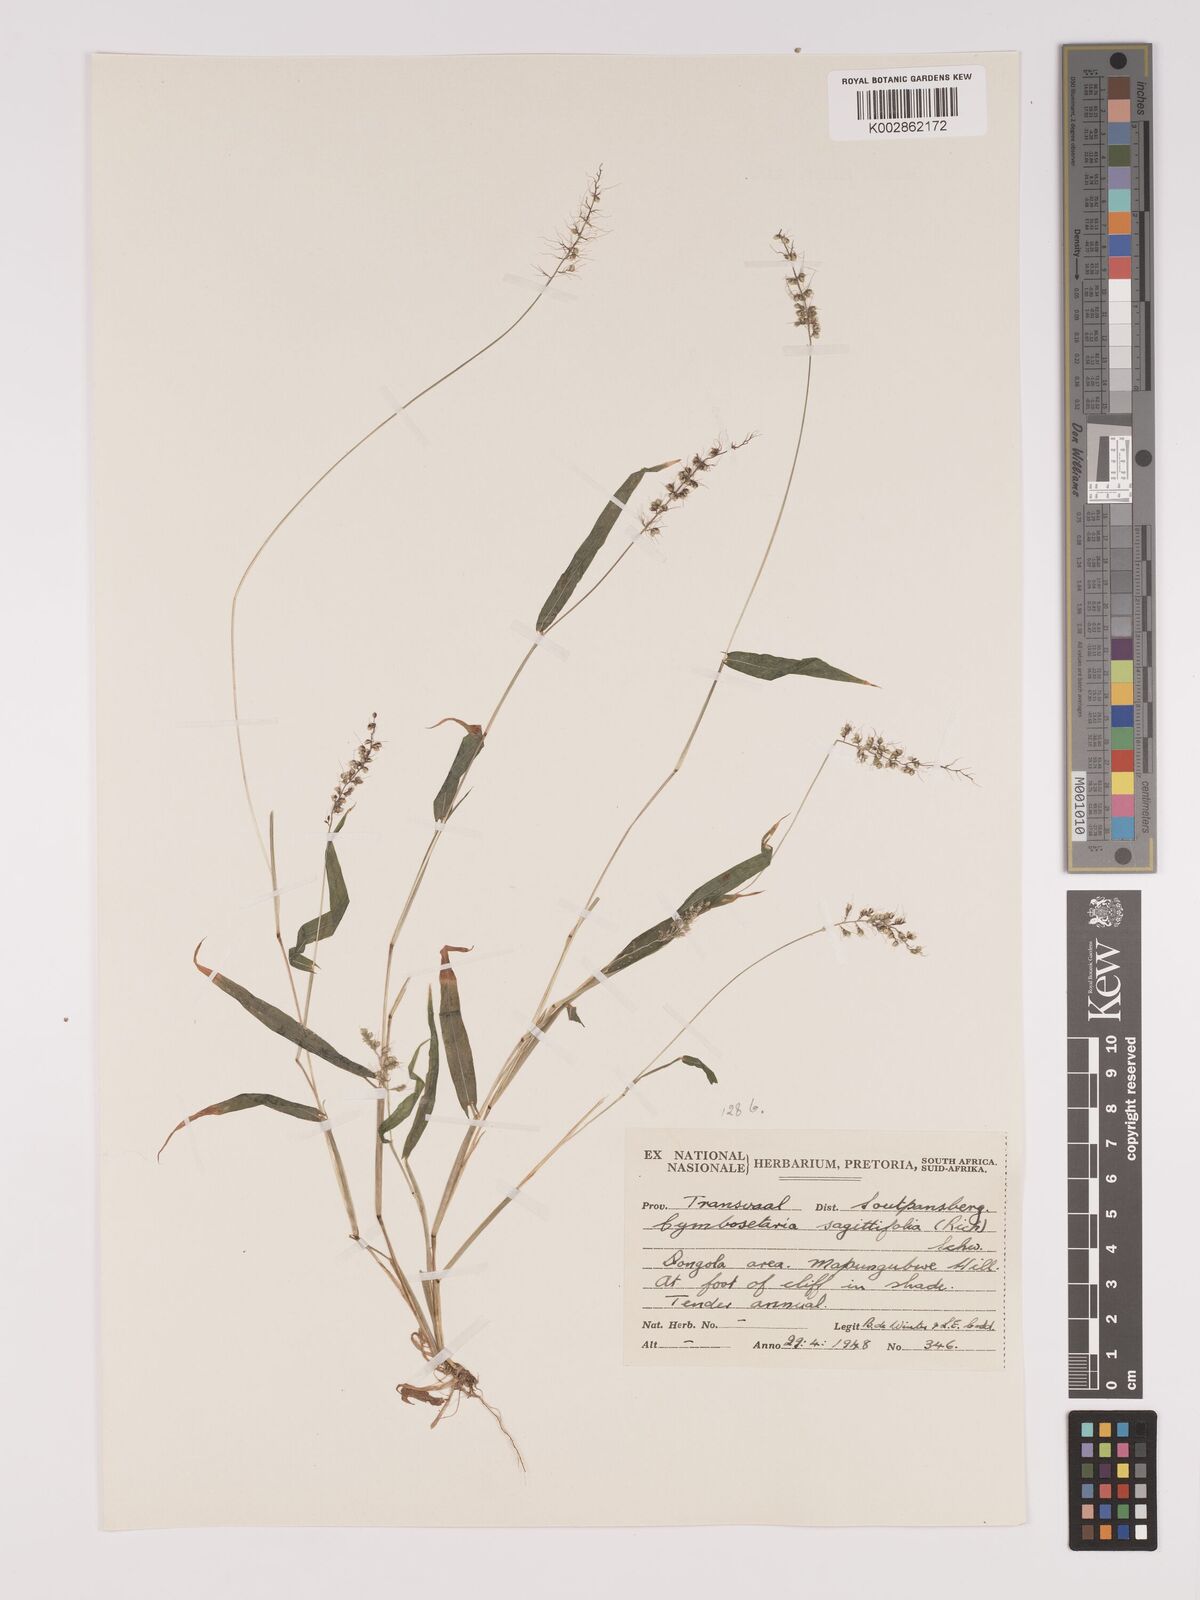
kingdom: Plantae
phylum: Tracheophyta
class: Liliopsida
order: Poales
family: Poaceae
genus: Setaria
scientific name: Setaria sagittifolia
